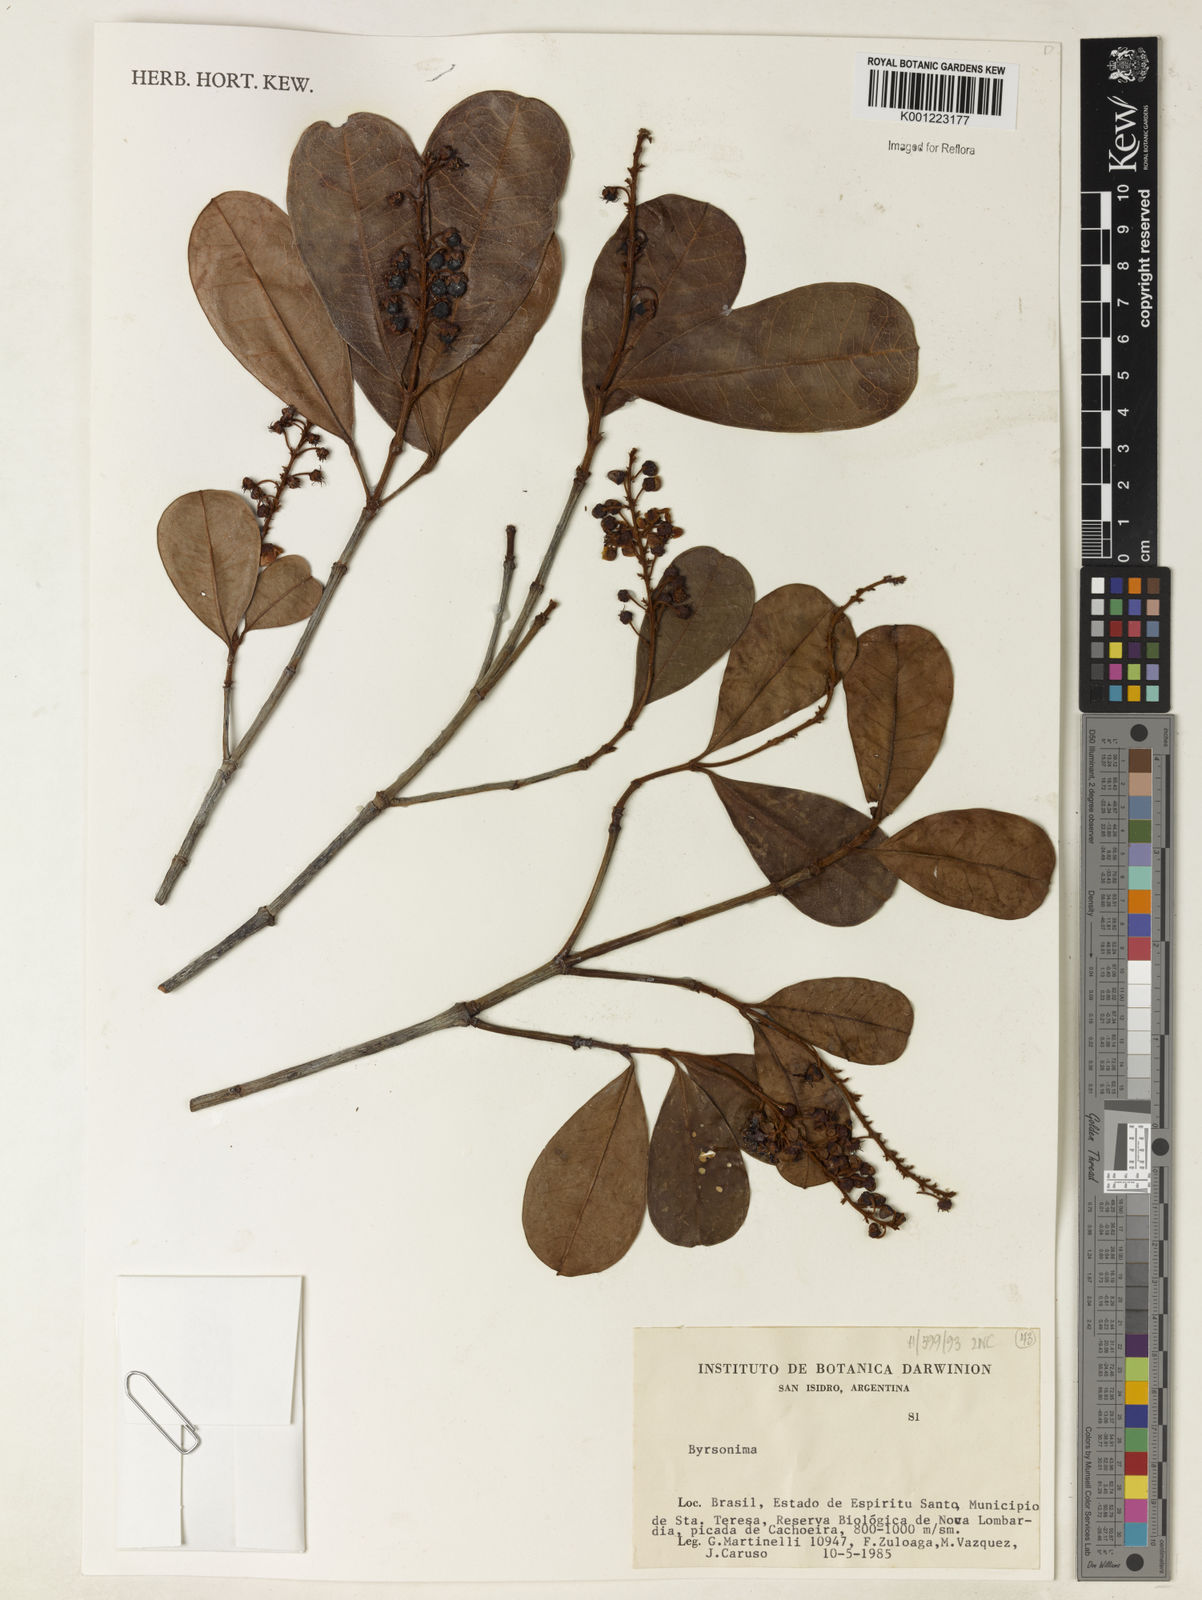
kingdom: Plantae
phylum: Tracheophyta
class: Magnoliopsida
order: Malpighiales
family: Malpighiaceae
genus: Byrsonima
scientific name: Byrsonima
